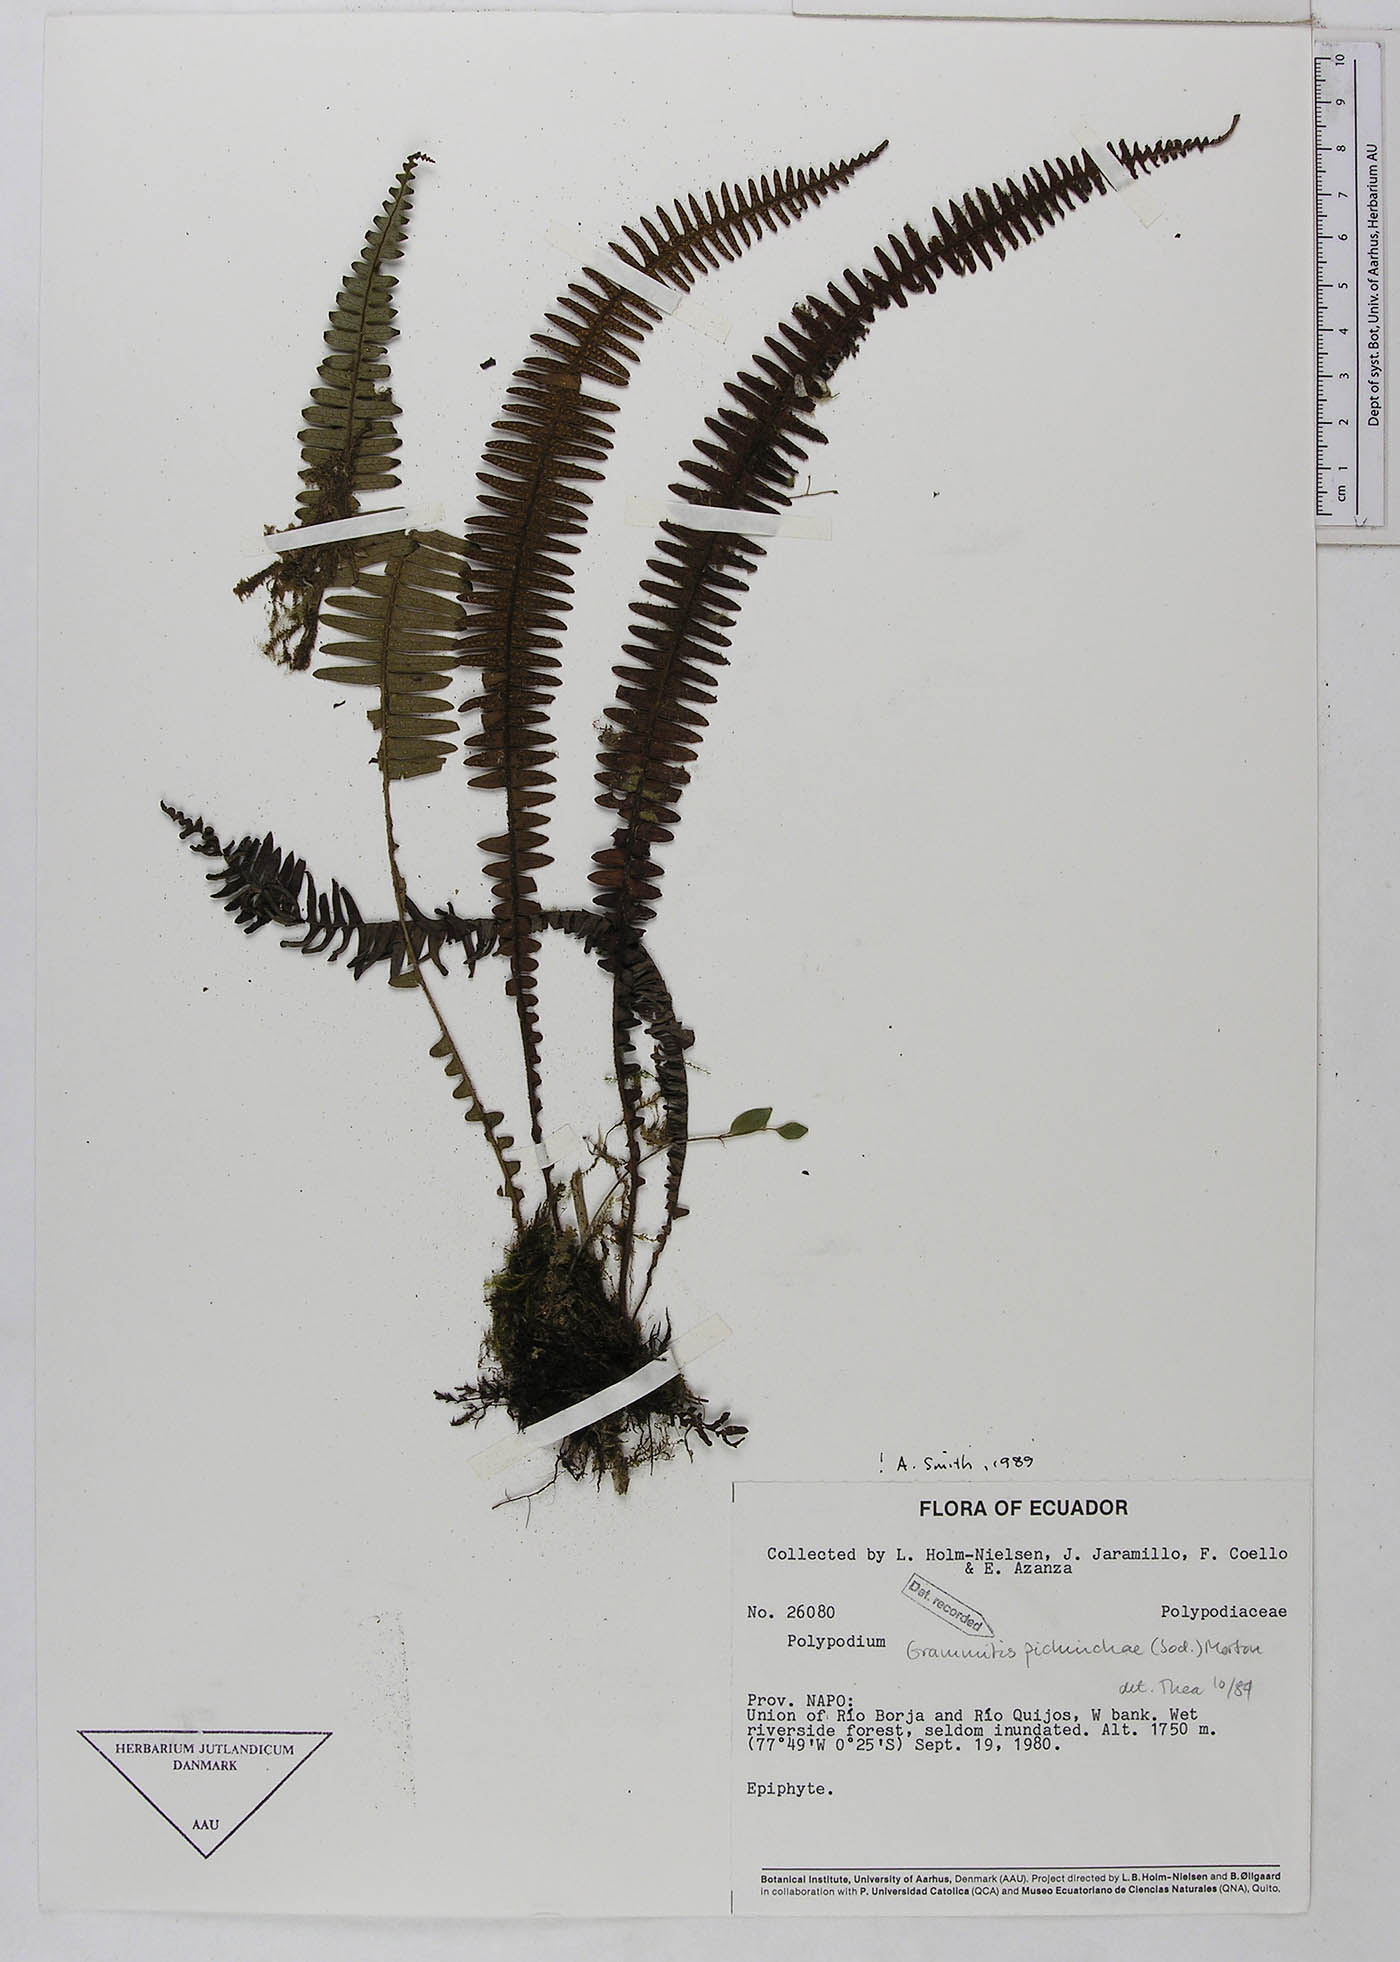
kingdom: Plantae
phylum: Tracheophyta
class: Polypodiopsida
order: Polypodiales
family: Polypodiaceae
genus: Ascogrammitis
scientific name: Ascogrammitis pichinchae
